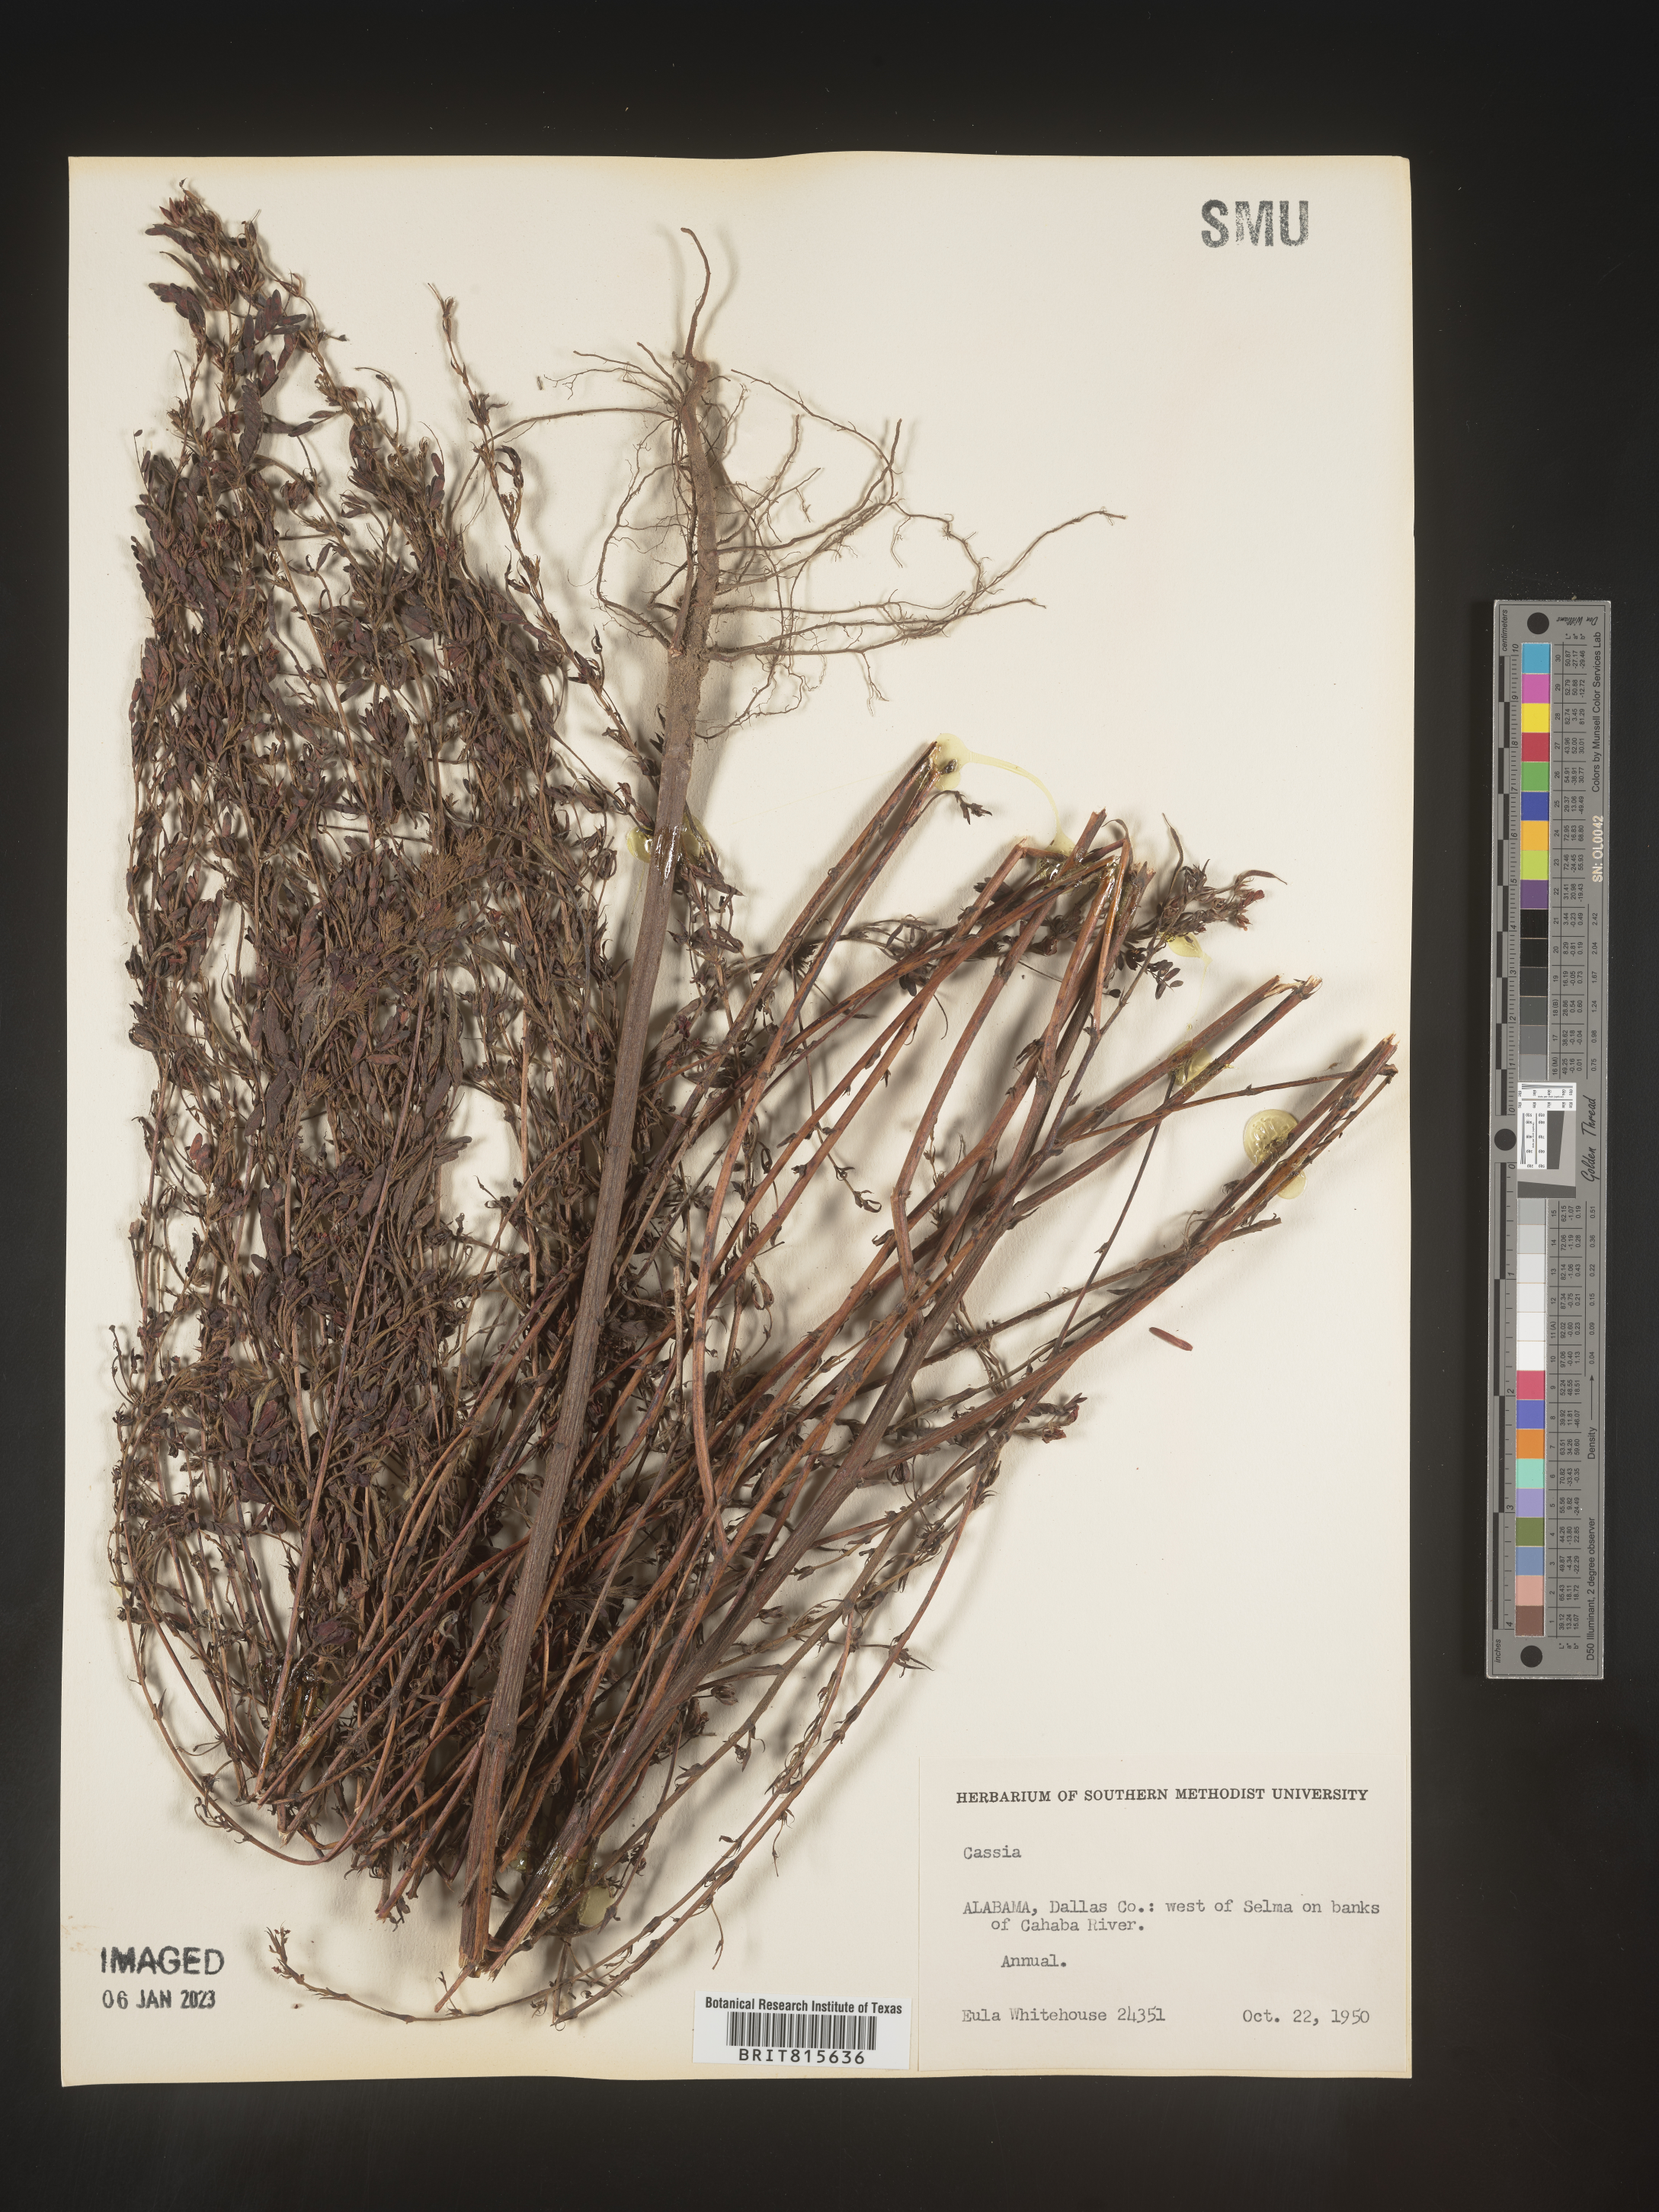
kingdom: Plantae
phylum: Tracheophyta
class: Magnoliopsida
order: Fabales
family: Fabaceae
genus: Cassia
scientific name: Cassia
